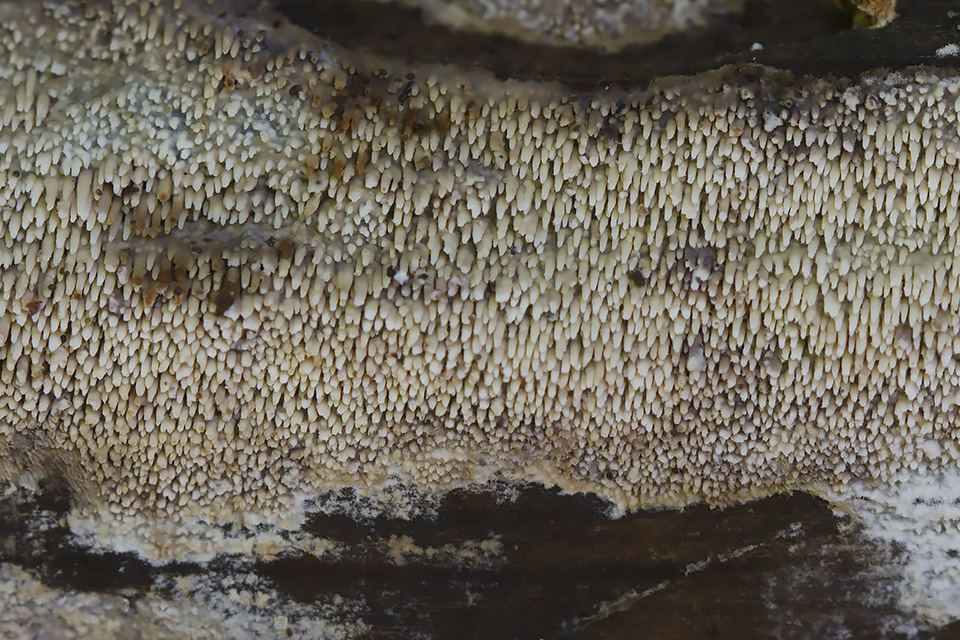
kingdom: Fungi
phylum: Basidiomycota
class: Agaricomycetes
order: Polyporales
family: Meruliaceae
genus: Mycoacia
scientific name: Mycoacia
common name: vokspig
